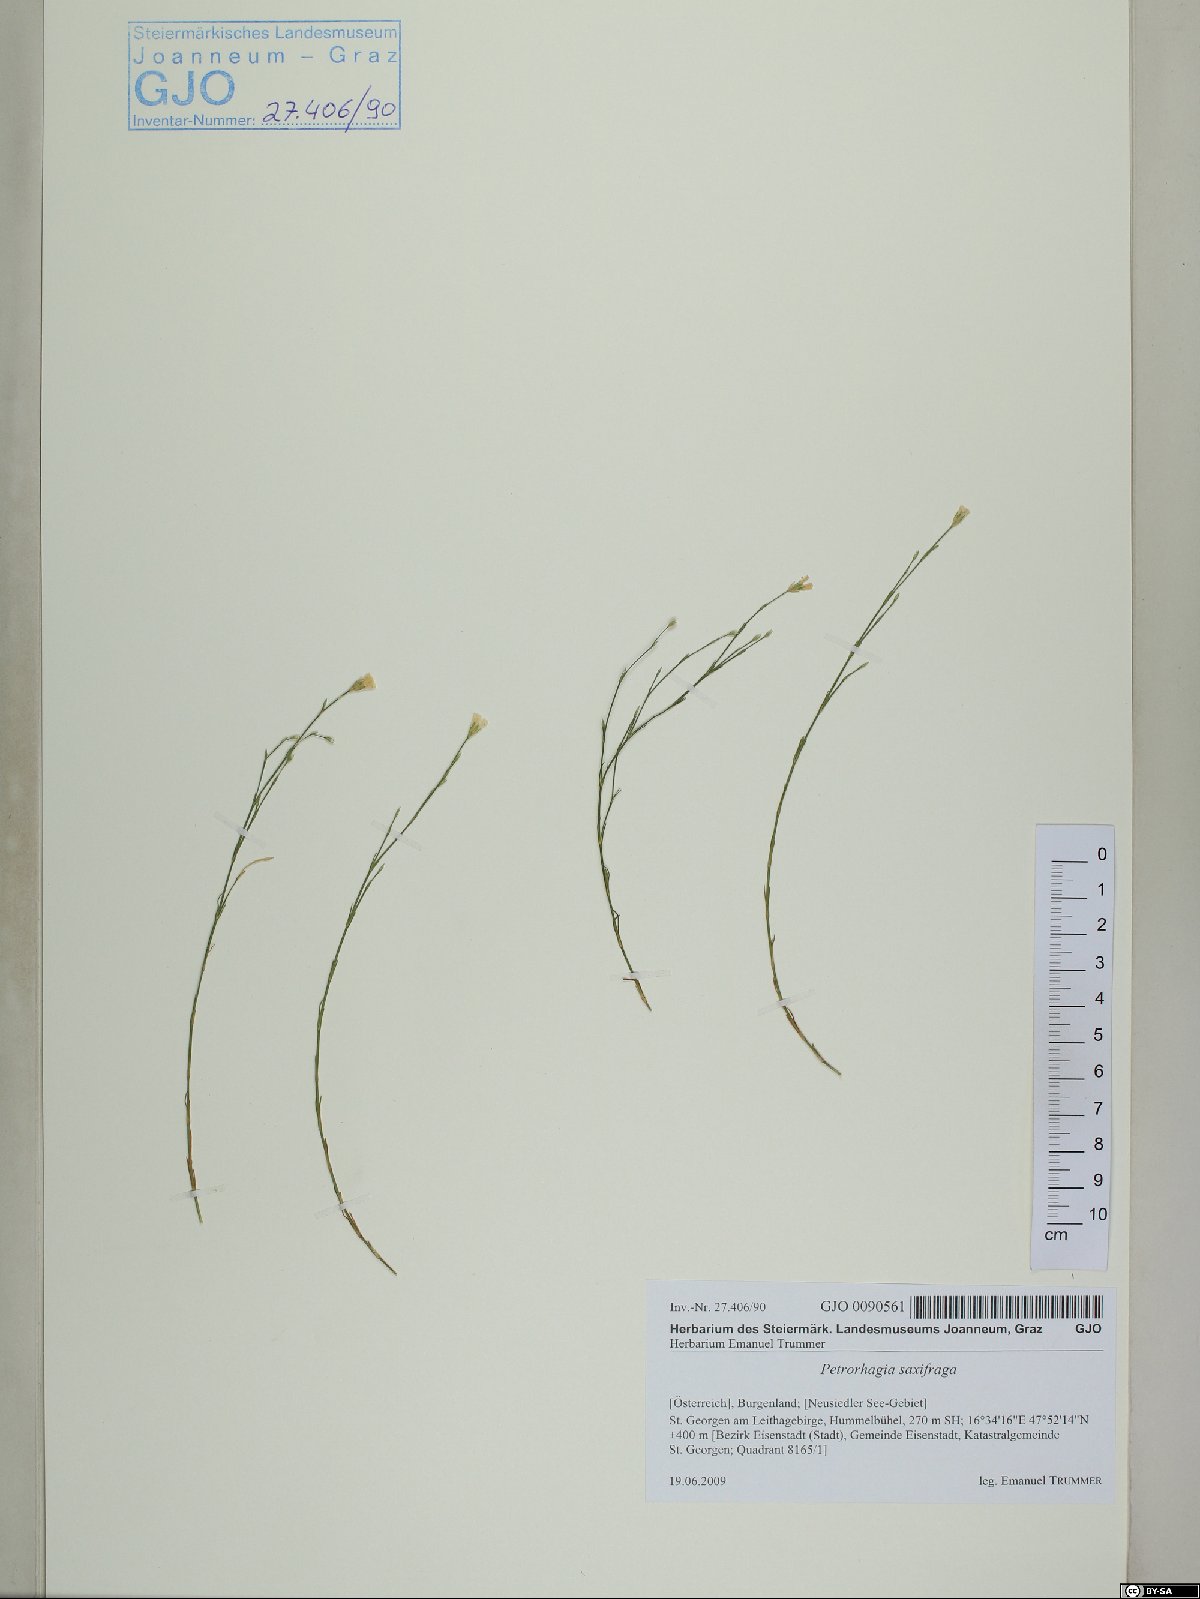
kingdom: Plantae
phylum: Tracheophyta
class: Magnoliopsida
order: Caryophyllales
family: Caryophyllaceae
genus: Petrorhagia
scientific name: Petrorhagia saxifraga
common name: Tunicflower
